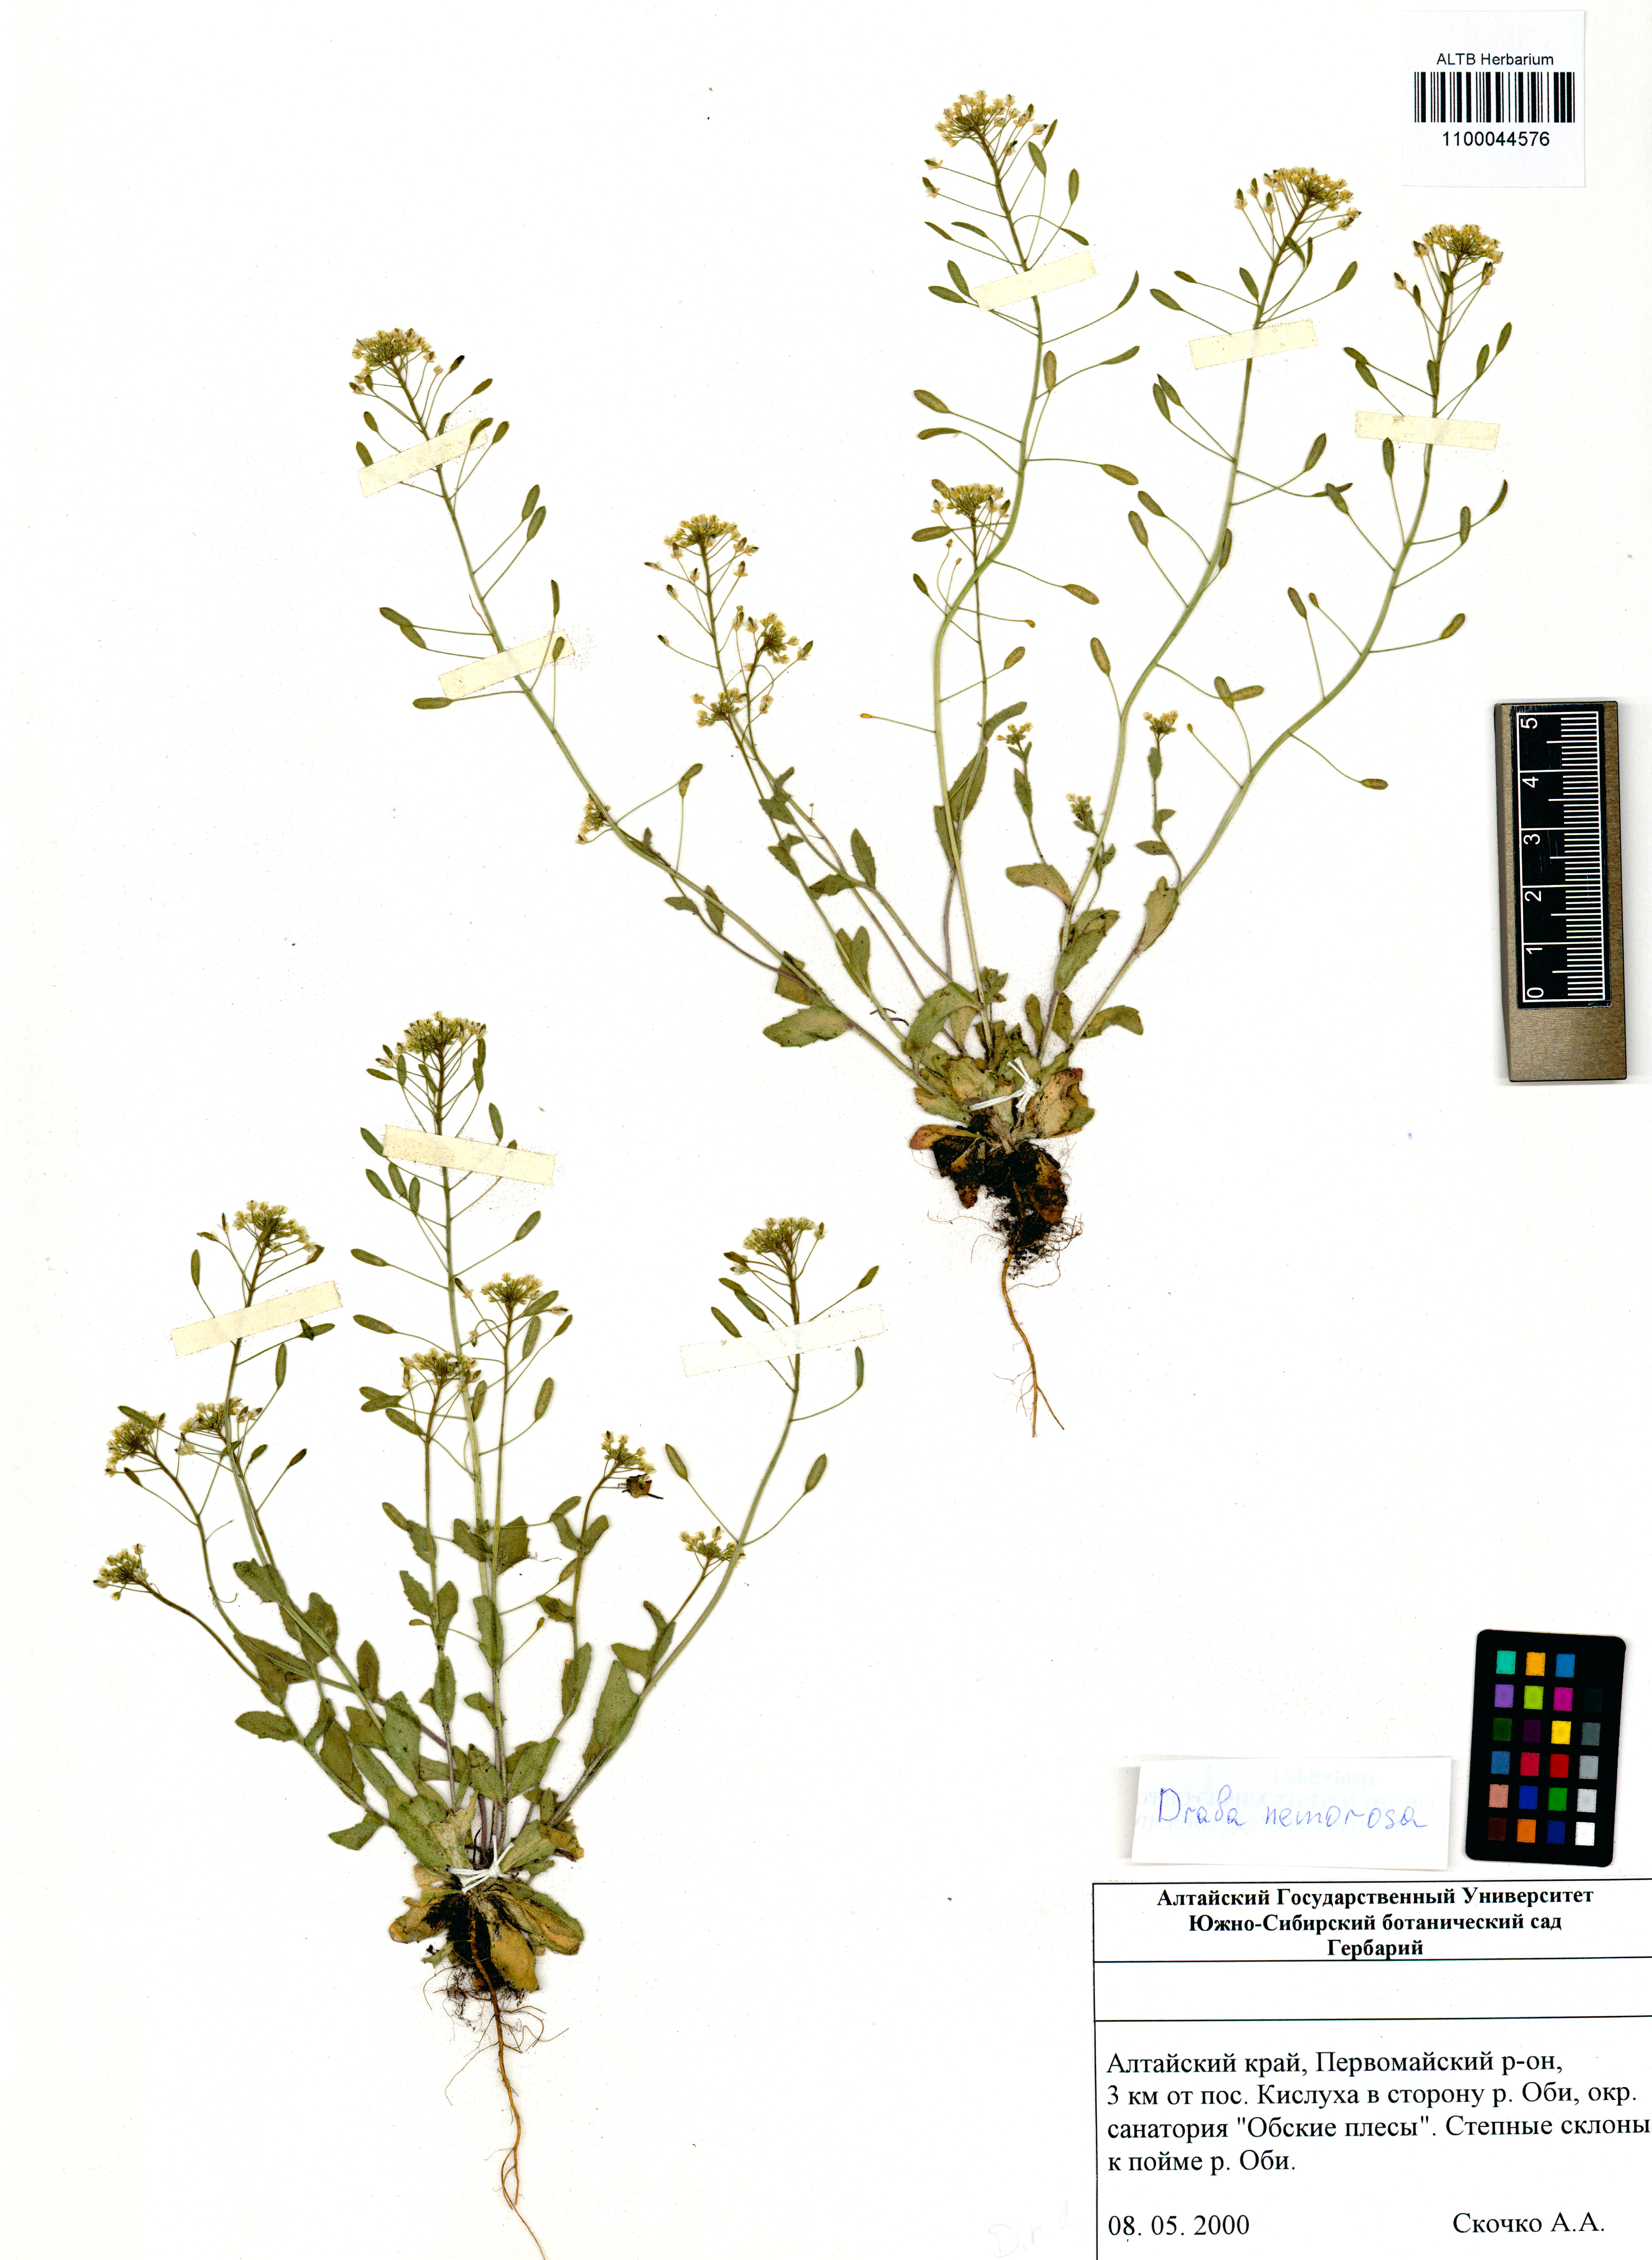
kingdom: Plantae
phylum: Tracheophyta
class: Magnoliopsida
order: Brassicales
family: Brassicaceae
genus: Draba
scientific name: Draba nemorosa
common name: Wood whitlow-grass
